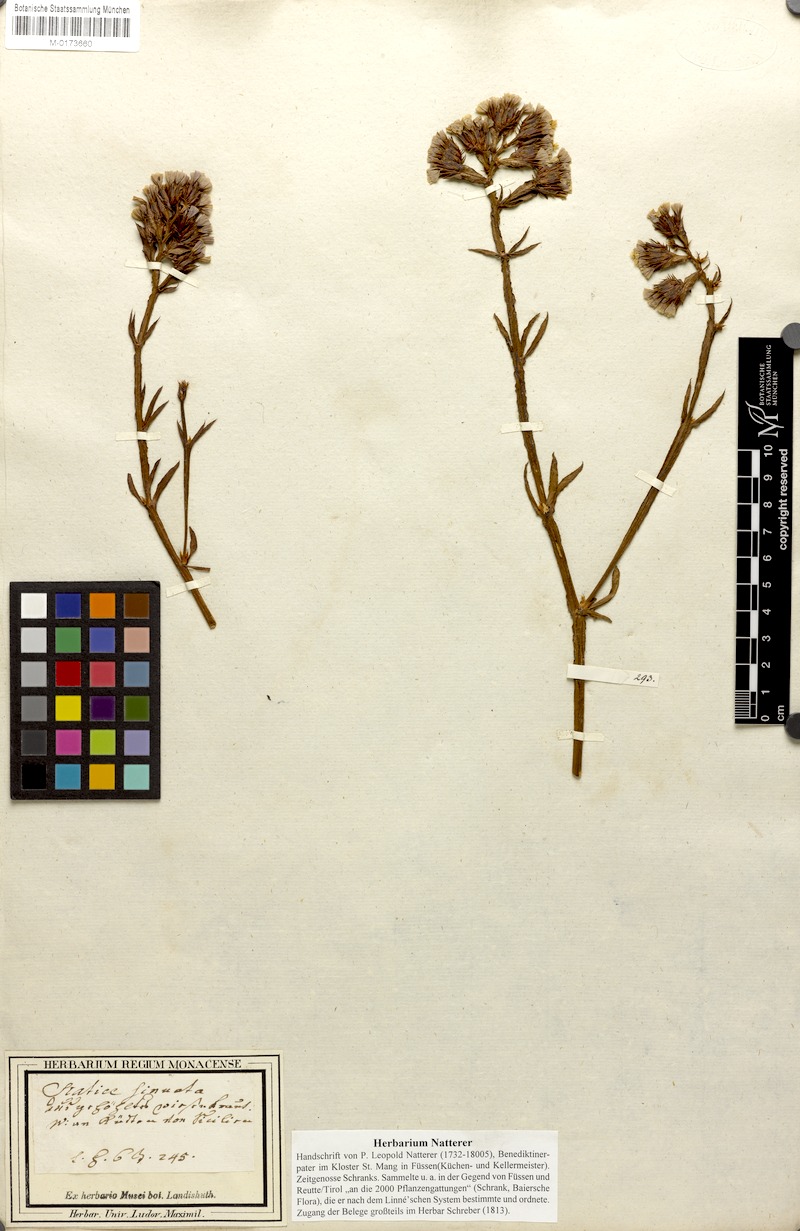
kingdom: Plantae
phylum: Tracheophyta
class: Magnoliopsida
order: Caryophyllales
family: Plumbaginaceae
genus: Limonium
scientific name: Limonium sinuatum
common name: Statice
